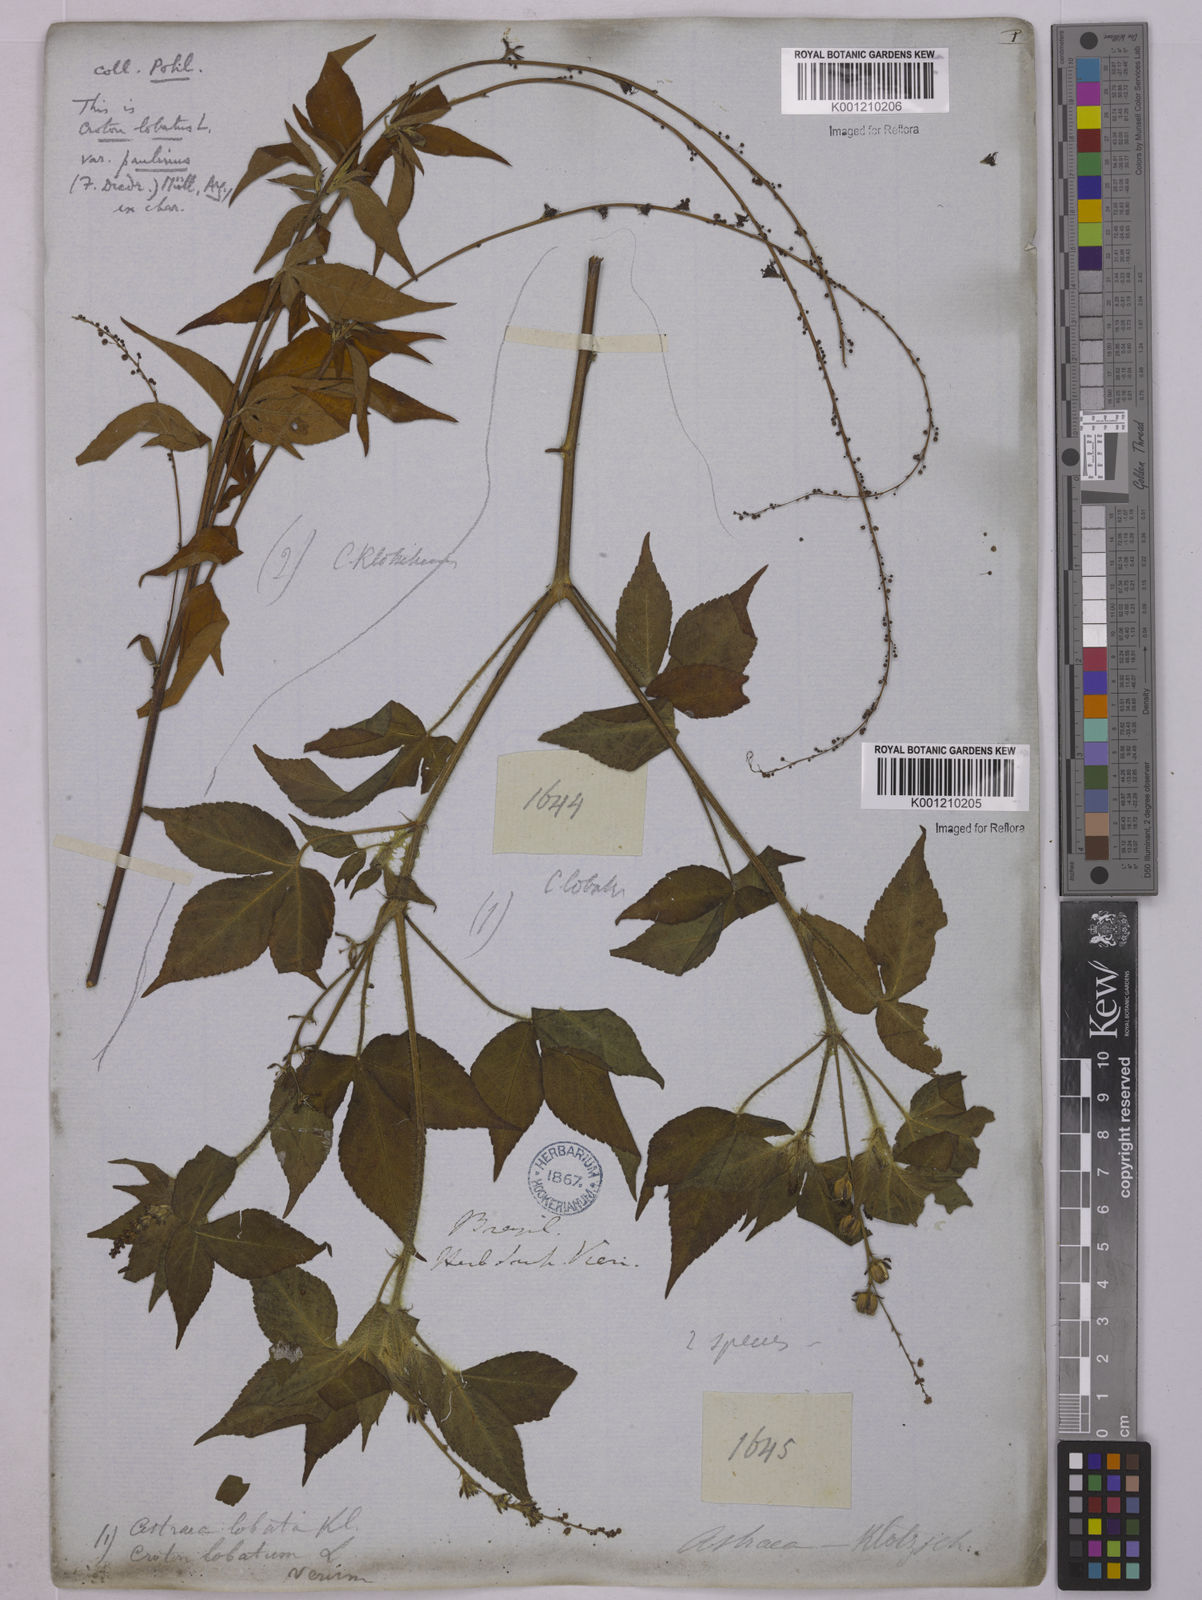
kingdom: Plantae
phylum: Tracheophyta
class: Magnoliopsida
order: Malpighiales
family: Euphorbiaceae
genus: Astraea
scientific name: Astraea lobata
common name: Lobed croton
